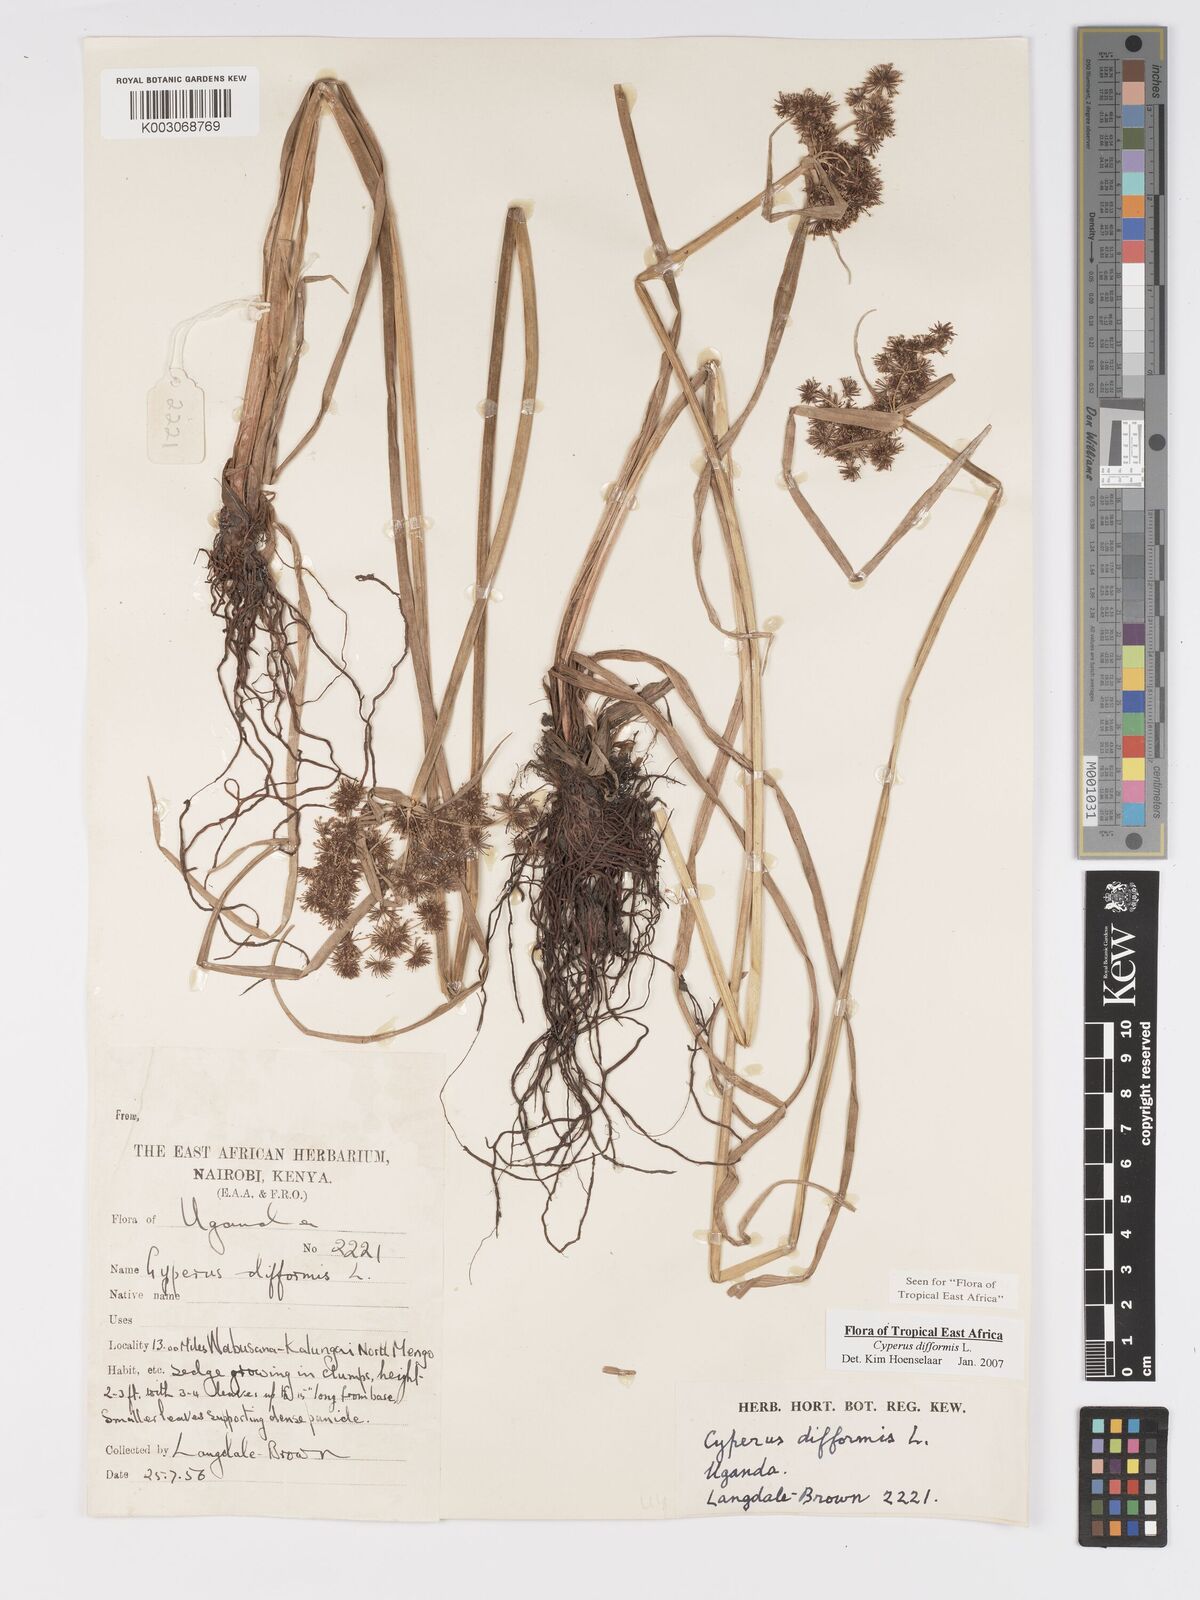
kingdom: Plantae
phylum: Tracheophyta
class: Liliopsida
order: Poales
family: Cyperaceae
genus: Cyperus
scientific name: Cyperus difformis
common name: Variable flatsedge
